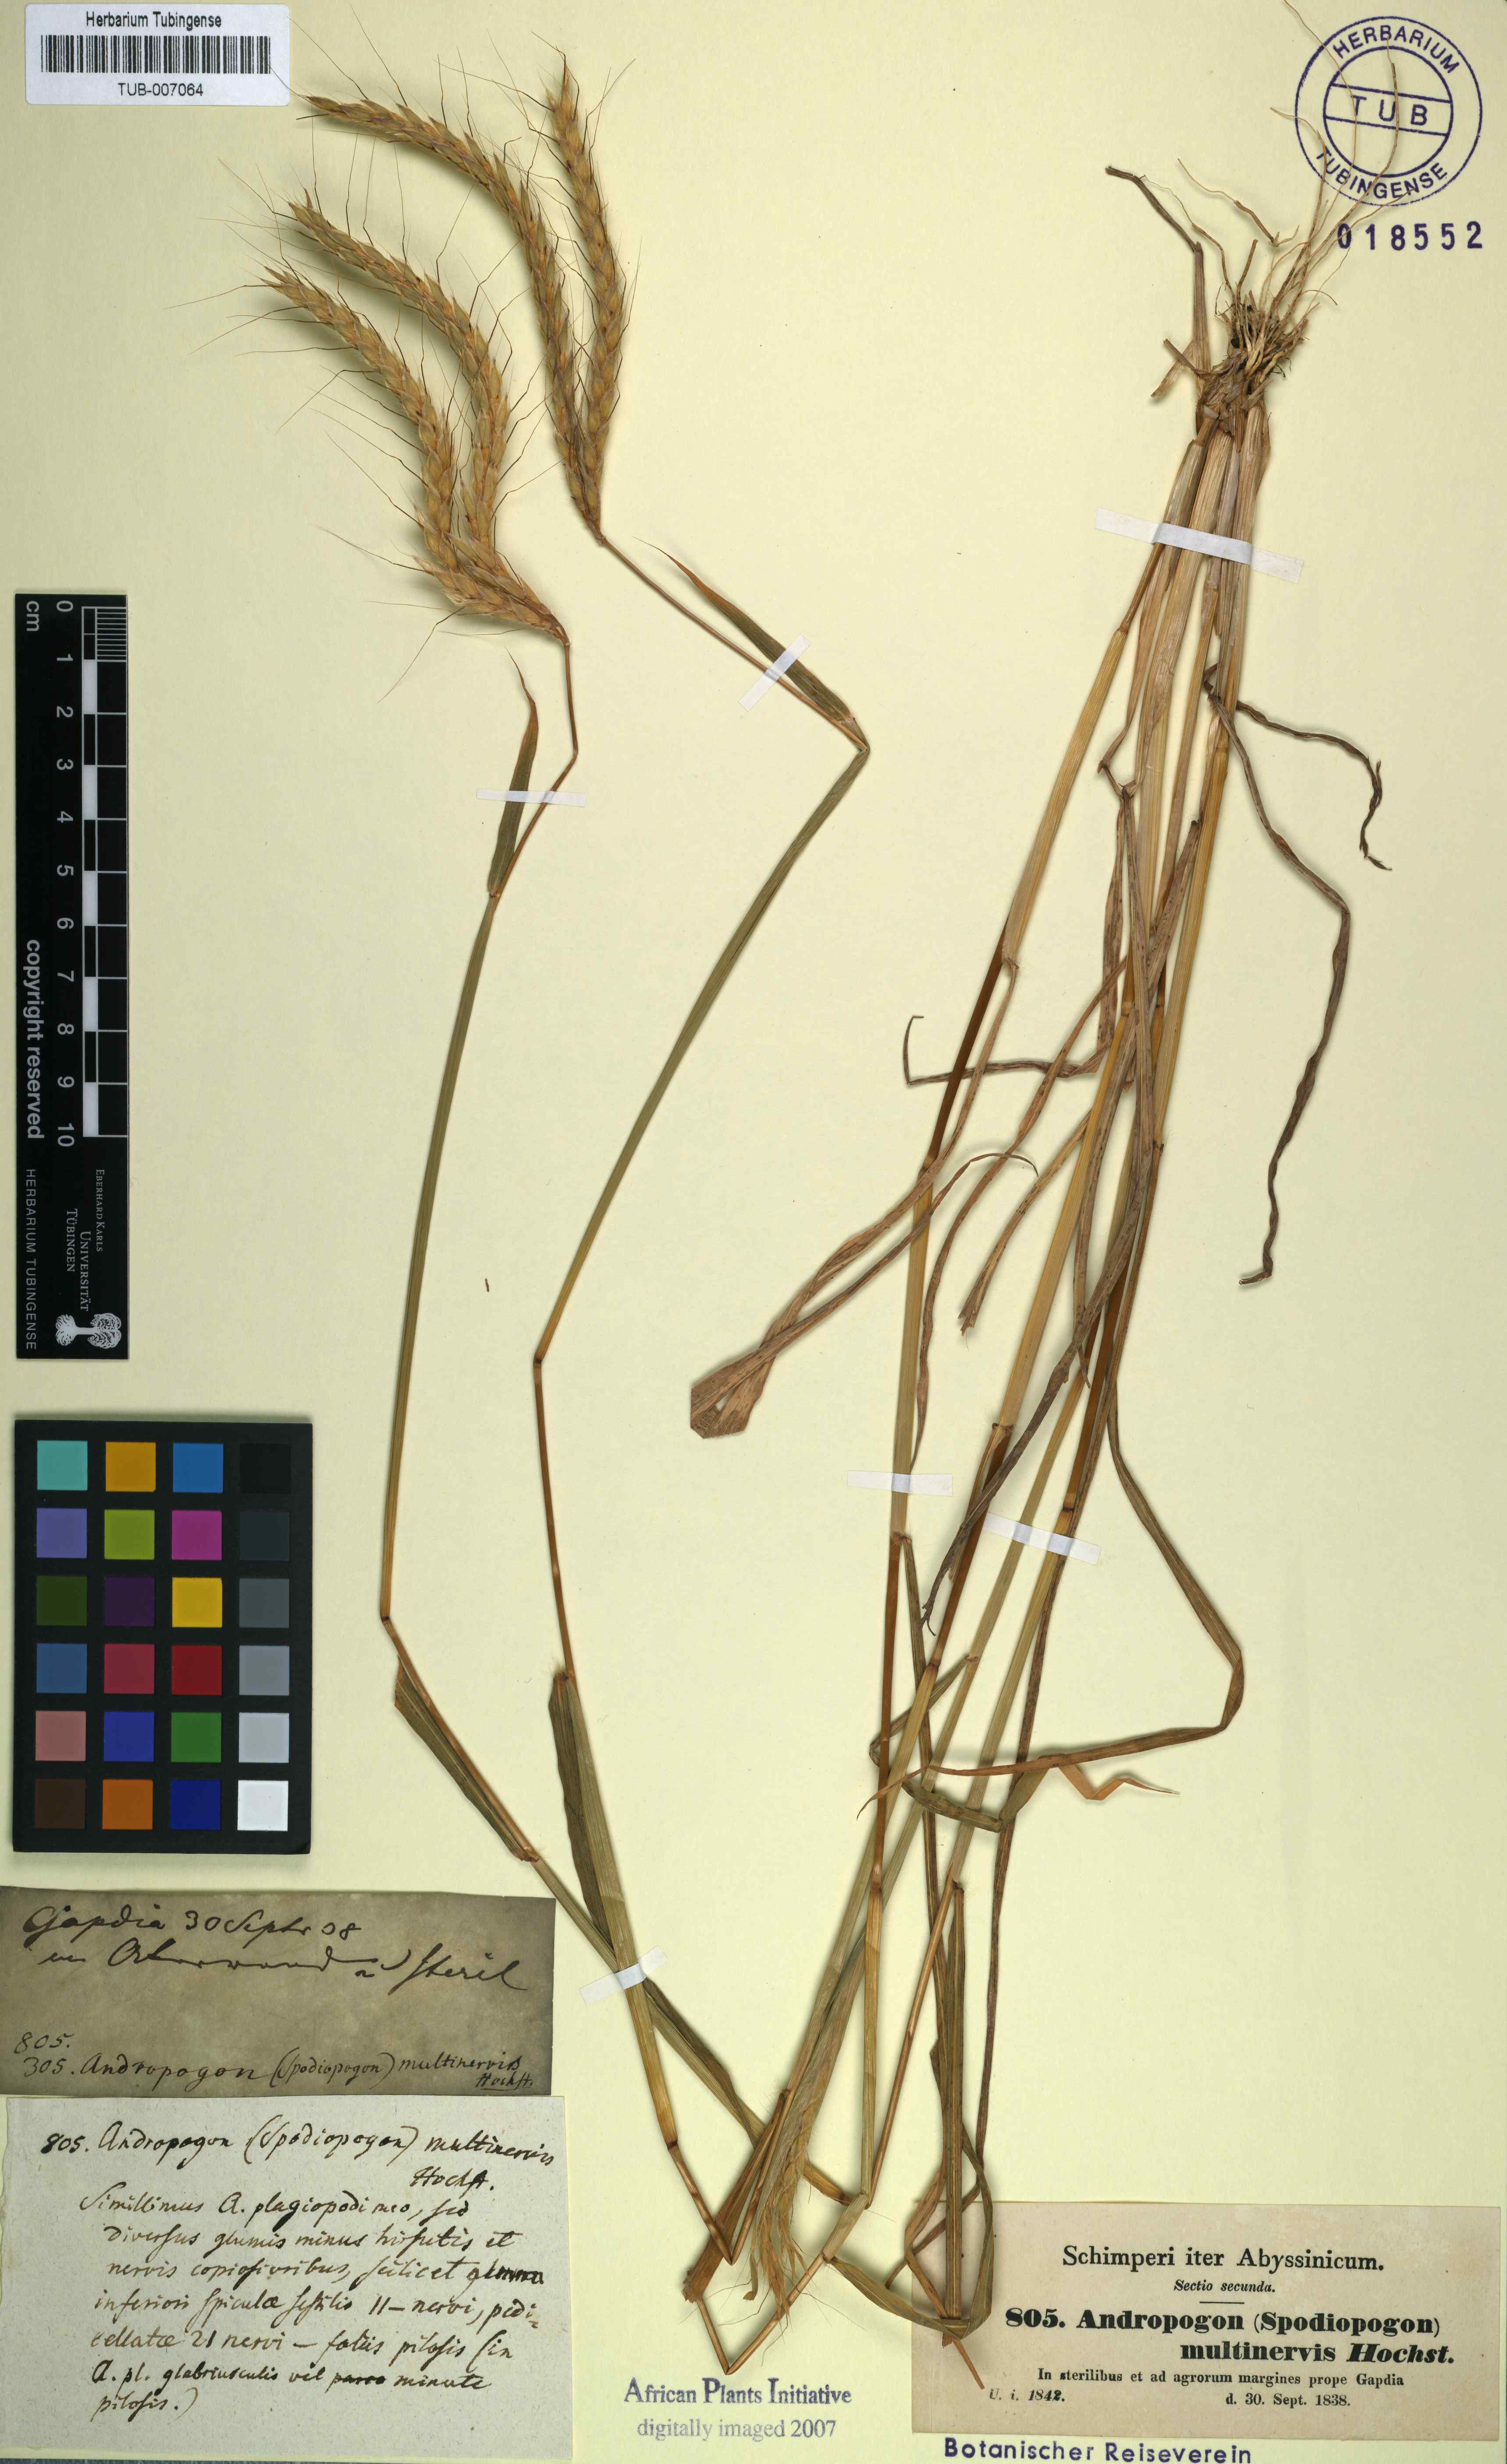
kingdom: Plantae
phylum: Tracheophyta
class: Liliopsida
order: Poales
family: Poaceae
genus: Andropogon
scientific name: Andropogon abyssinicus
